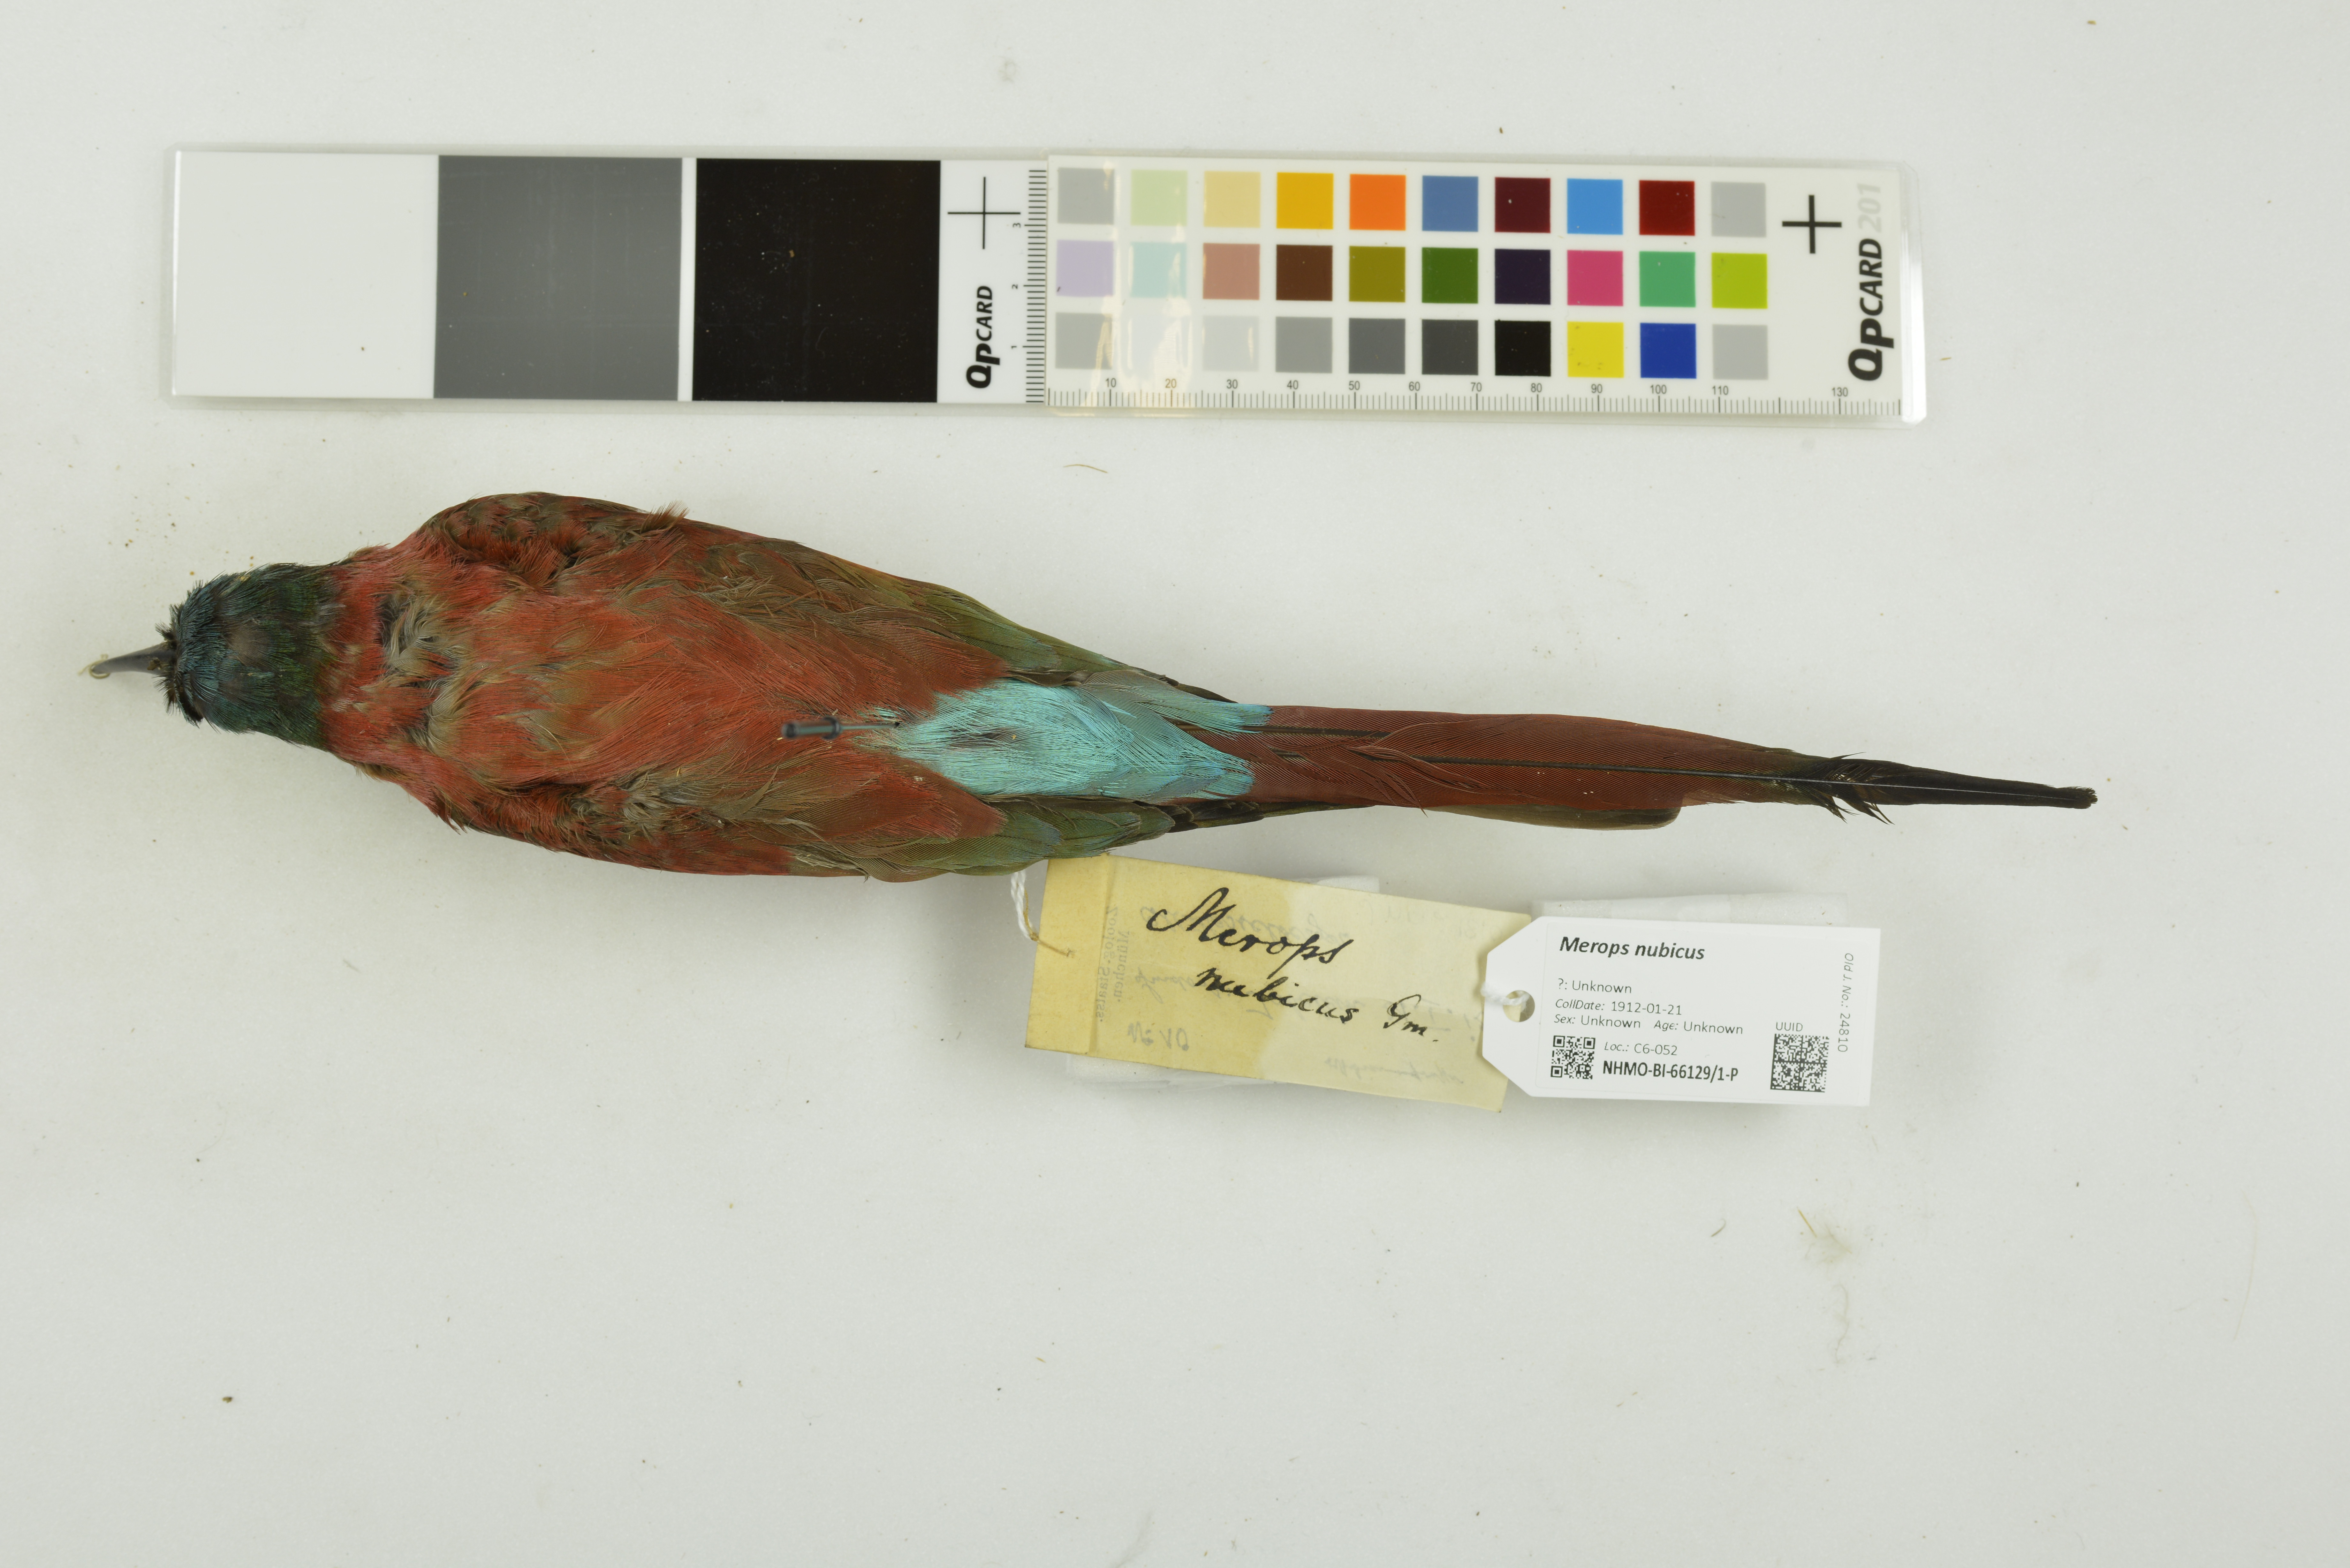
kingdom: Animalia
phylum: Chordata
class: Aves
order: Coraciiformes
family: Meropidae
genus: Merops
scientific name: Merops nubicus
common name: Northern carmine bee-eater
